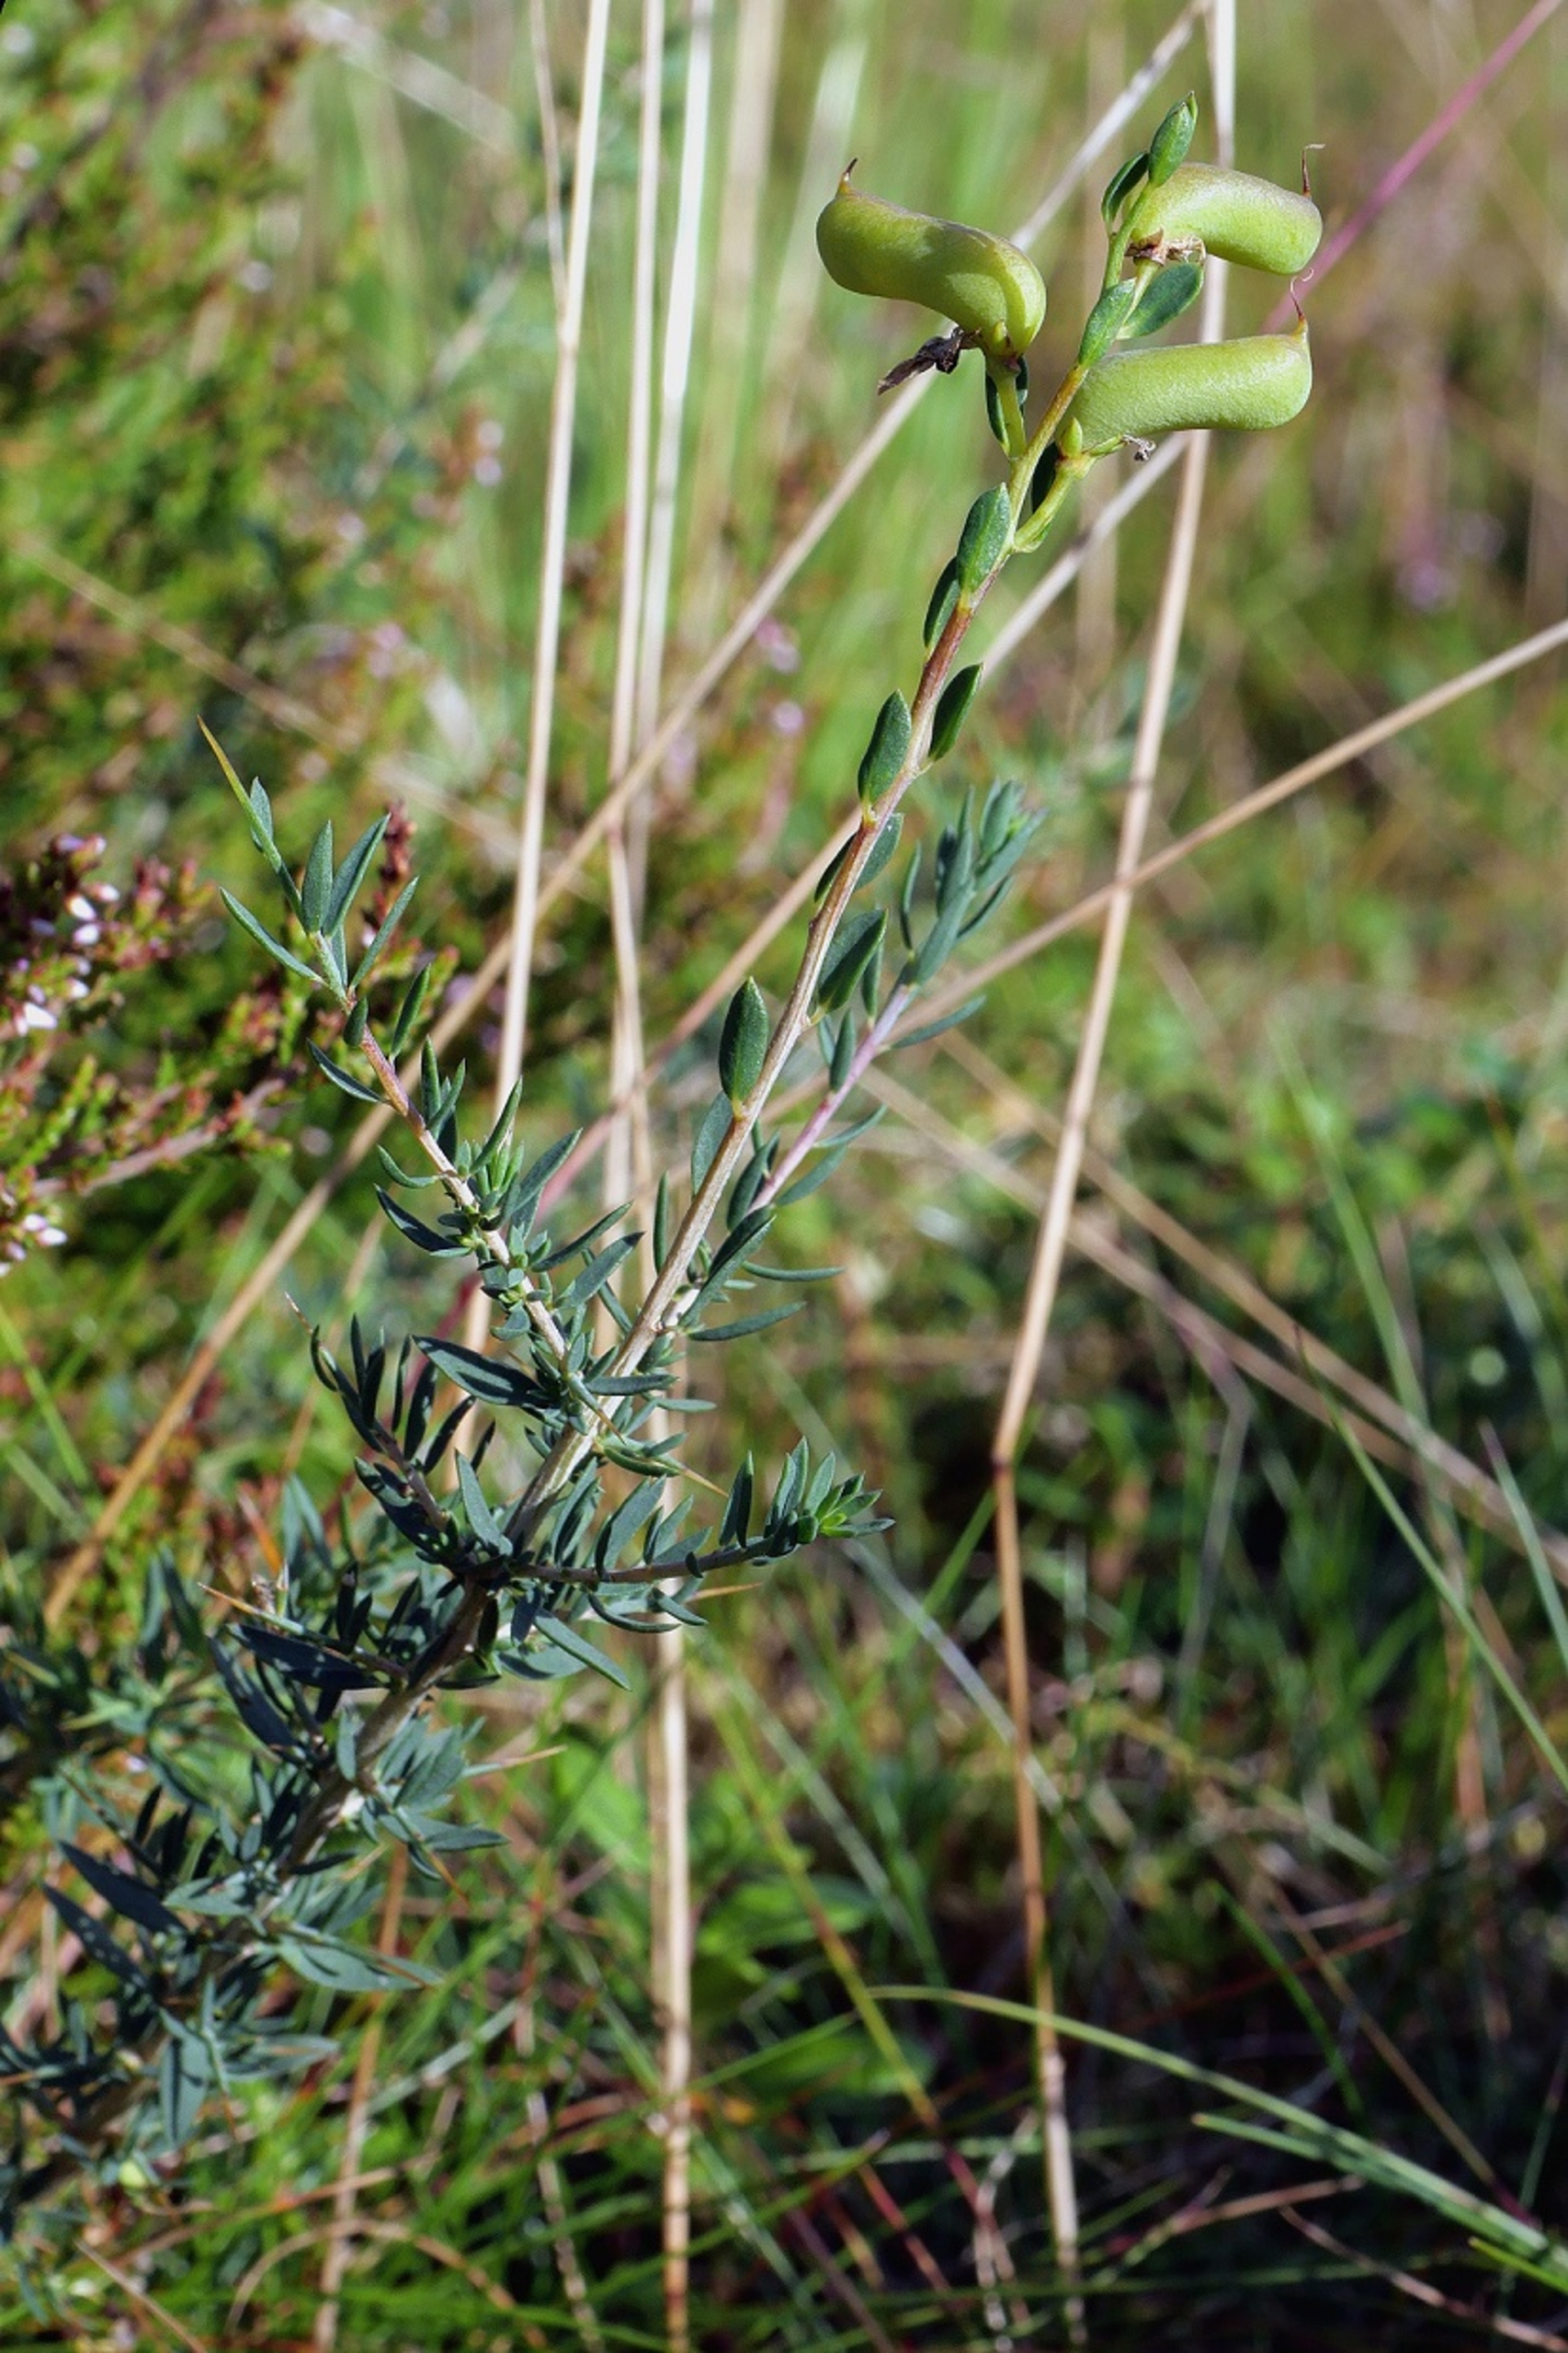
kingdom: Plantae
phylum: Tracheophyta
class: Magnoliopsida
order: Fabales
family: Fabaceae
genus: Genista
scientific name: Genista anglica
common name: Engelsk visse
